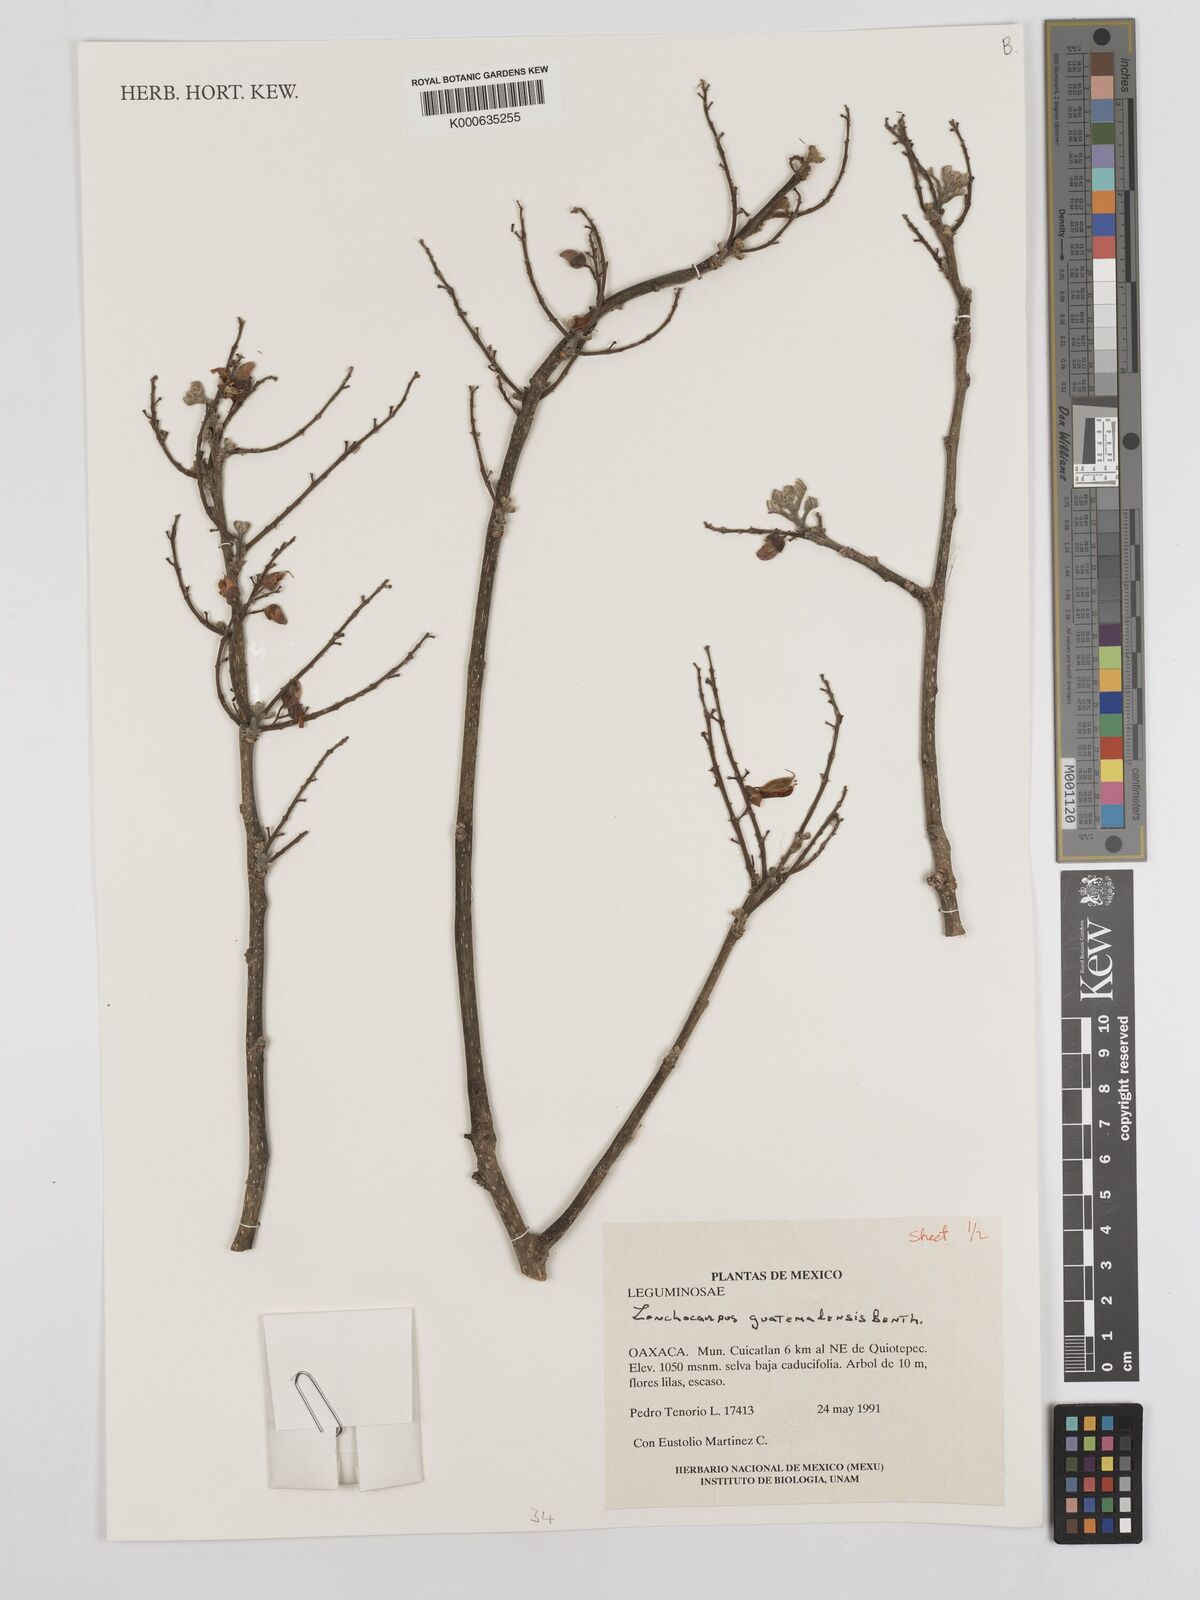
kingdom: Plantae
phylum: Tracheophyta
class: Magnoliopsida
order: Fabales
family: Fabaceae
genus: Lonchocarpus
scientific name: Lonchocarpus guatemalensis
